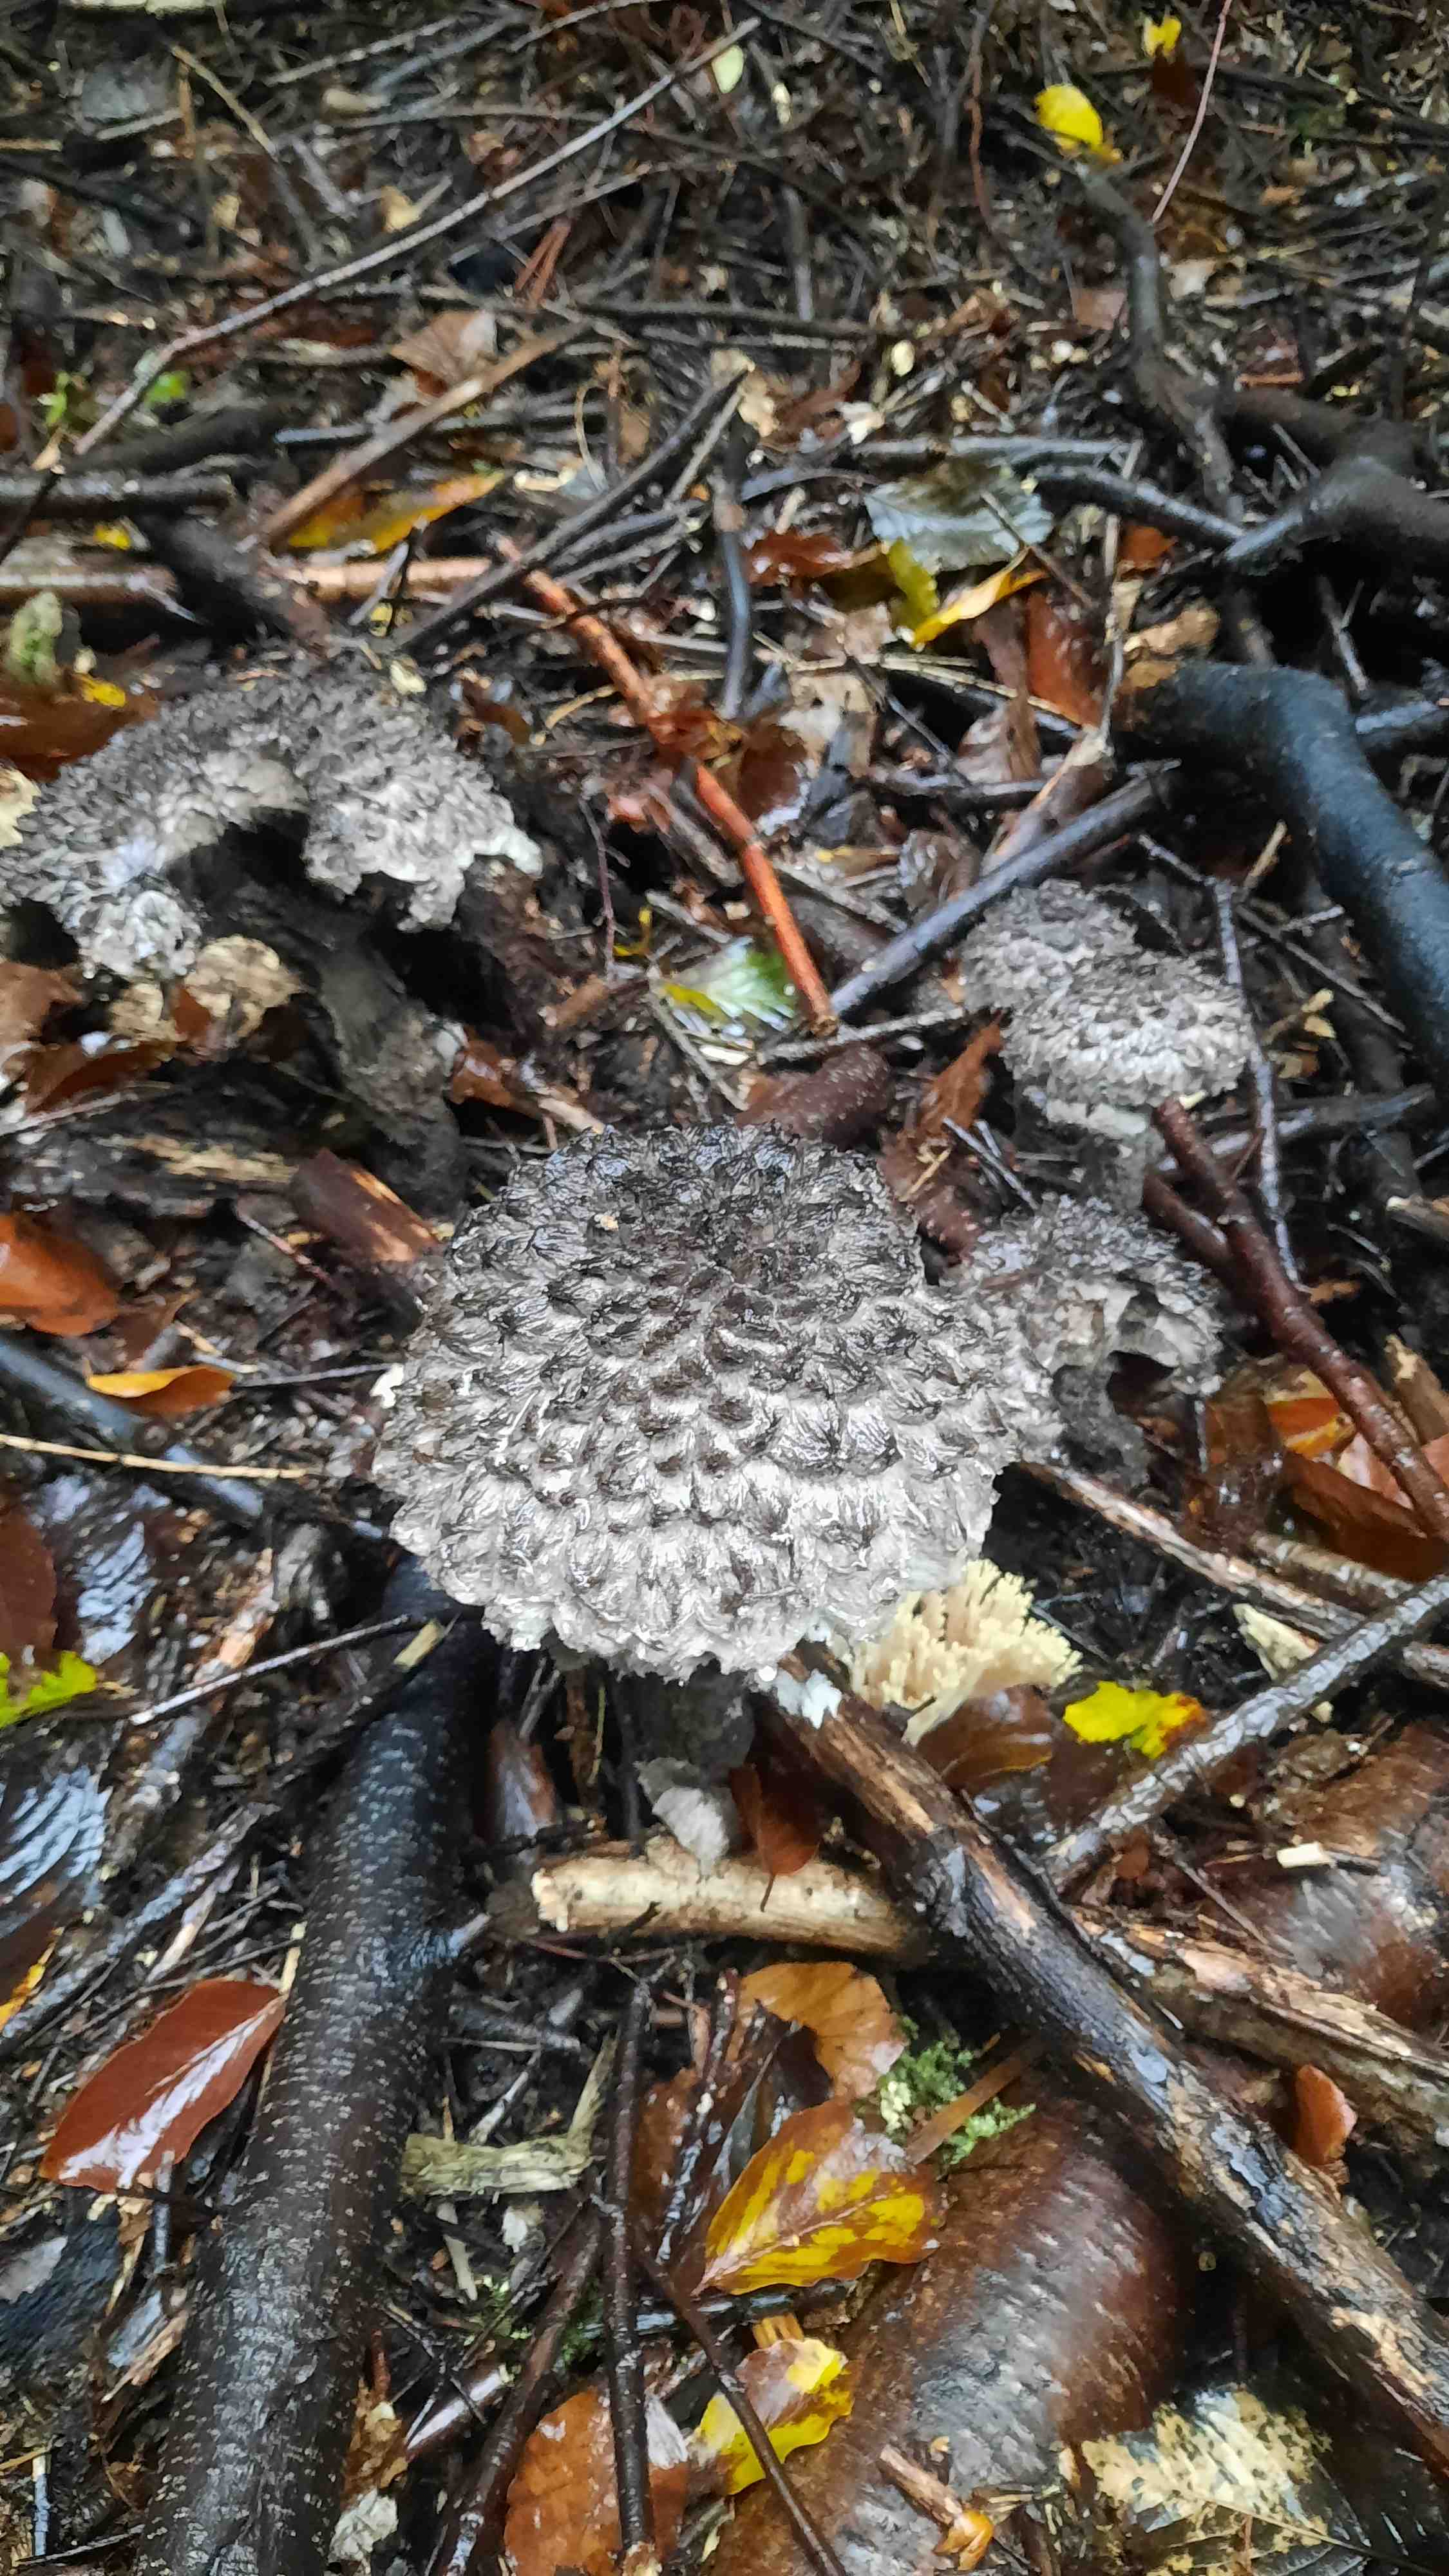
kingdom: Fungi
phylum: Basidiomycota
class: Agaricomycetes
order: Boletales
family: Boletaceae
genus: Strobilomyces
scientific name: Strobilomyces strobilaceus
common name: koglerørhat
